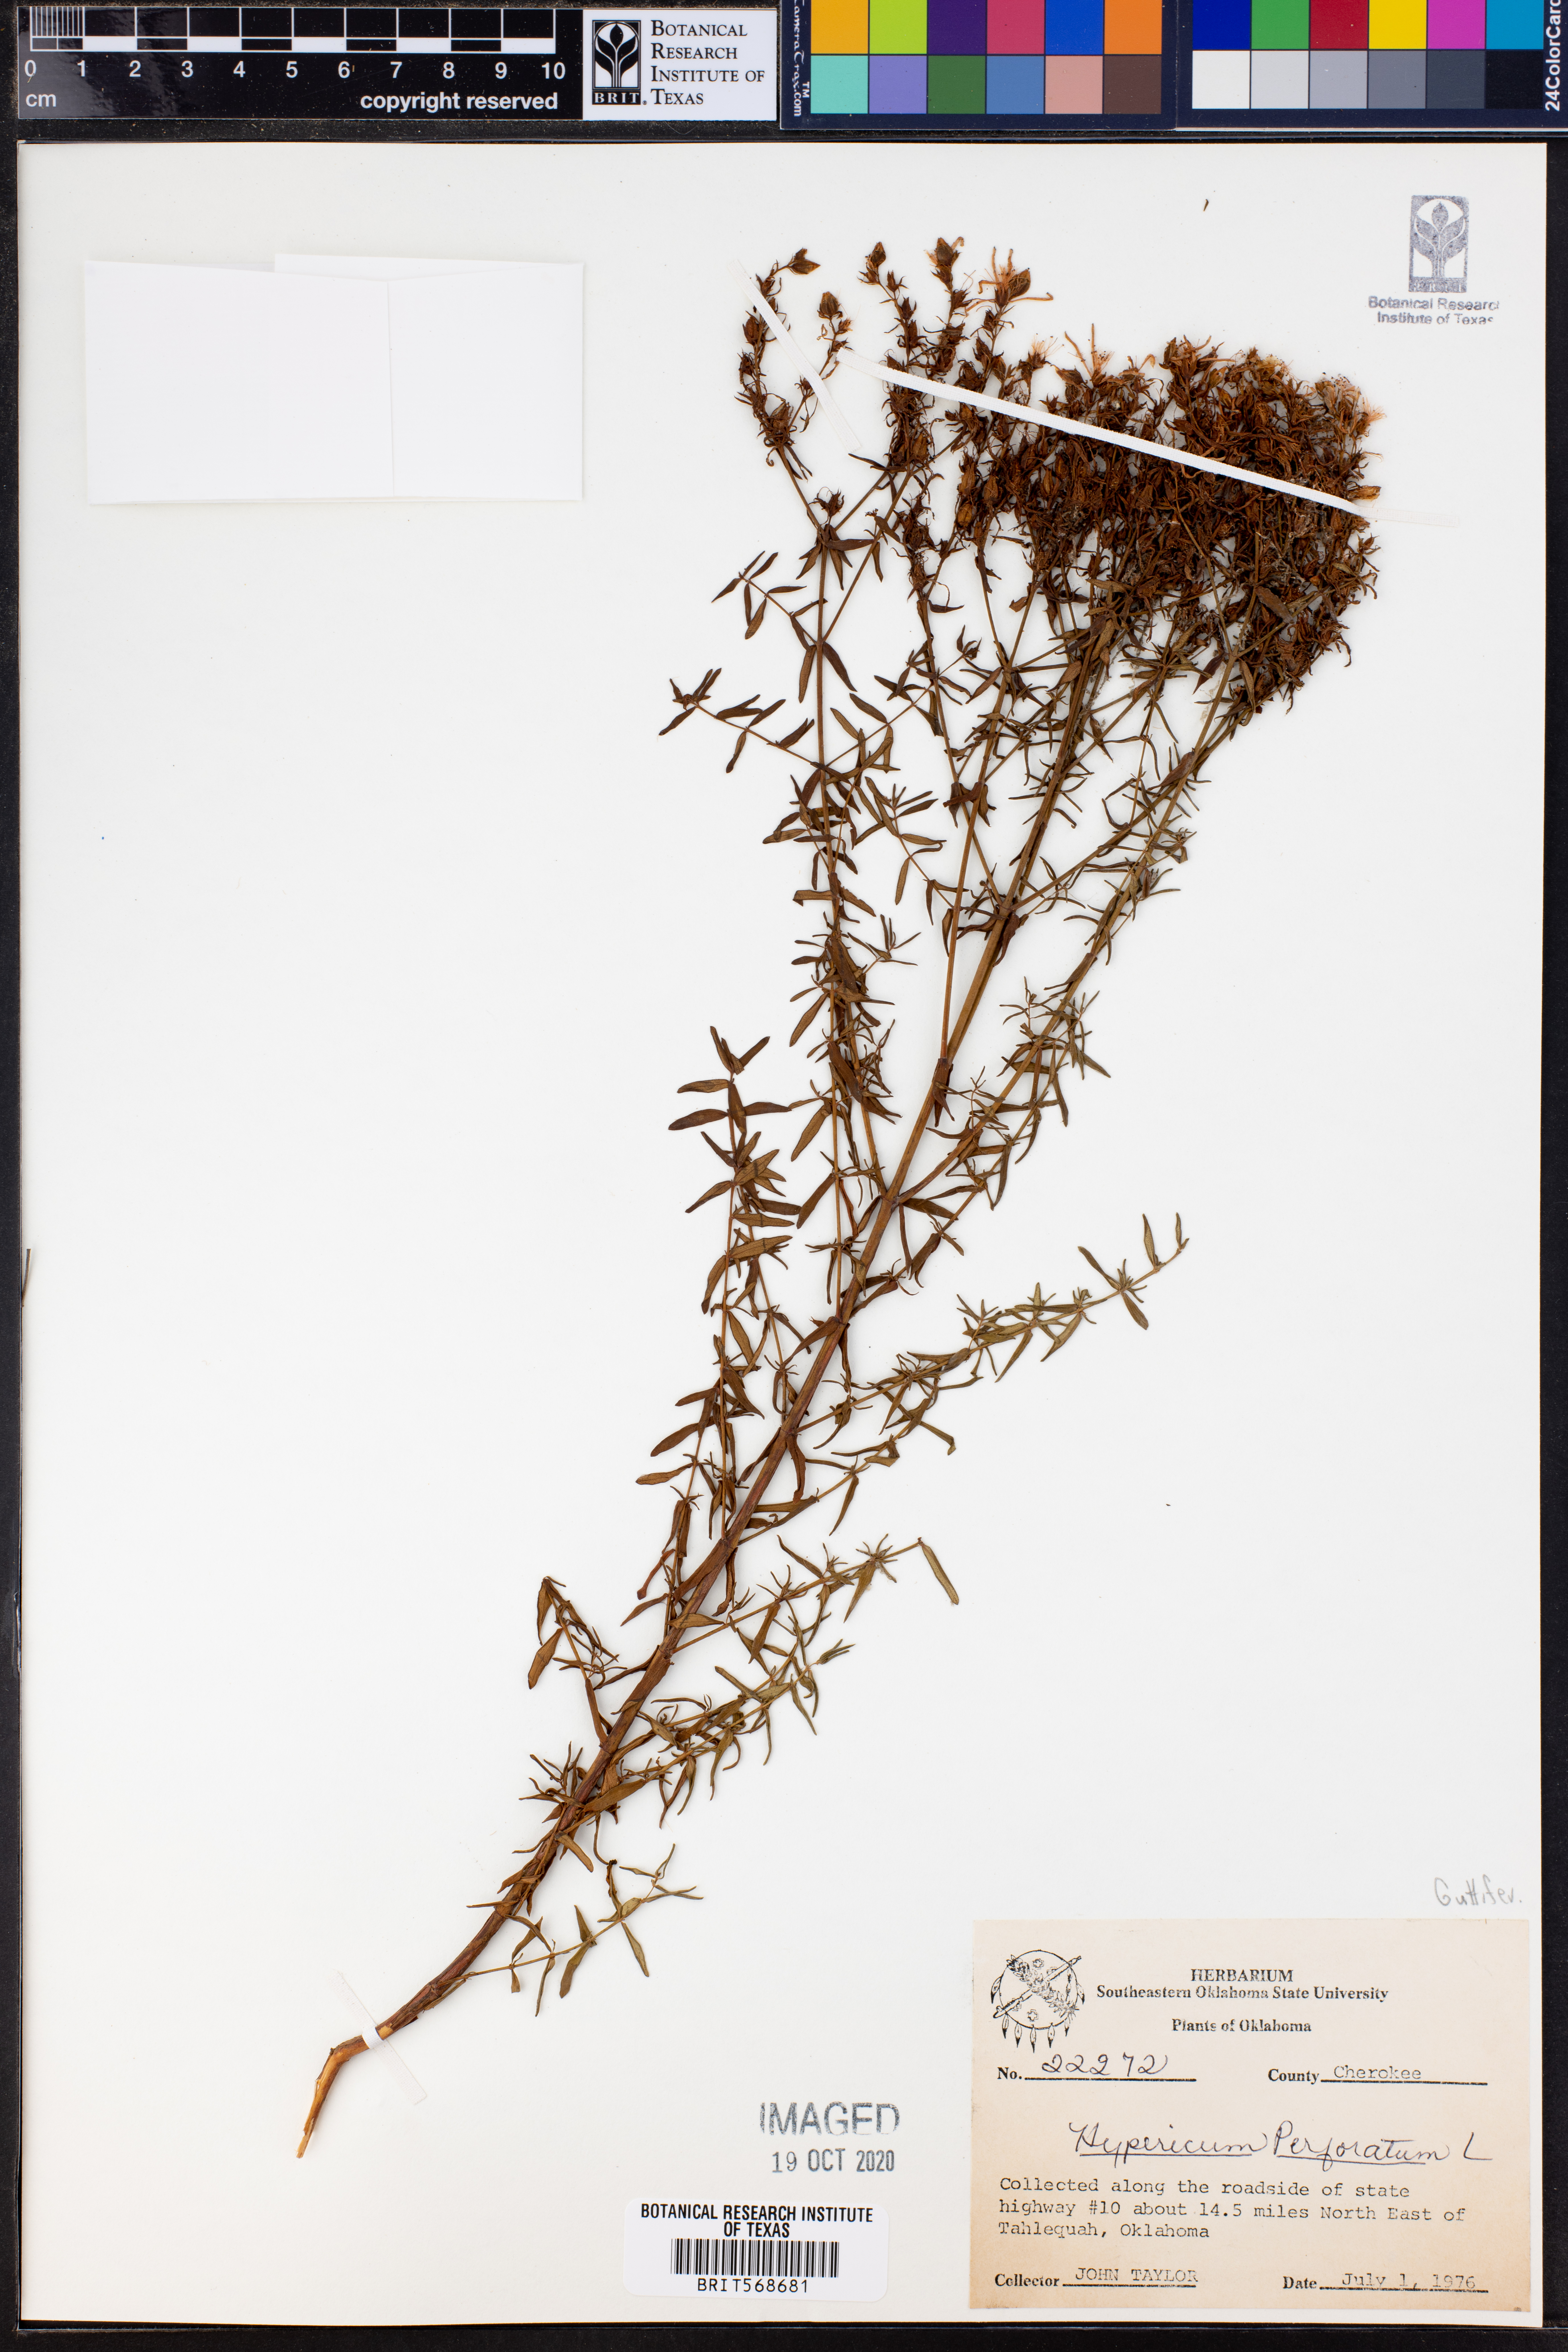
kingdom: Plantae
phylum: Tracheophyta
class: Magnoliopsida
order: Malpighiales
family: Hypericaceae
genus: Hypericum
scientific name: Hypericum perforatum
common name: Common st. johnswort
